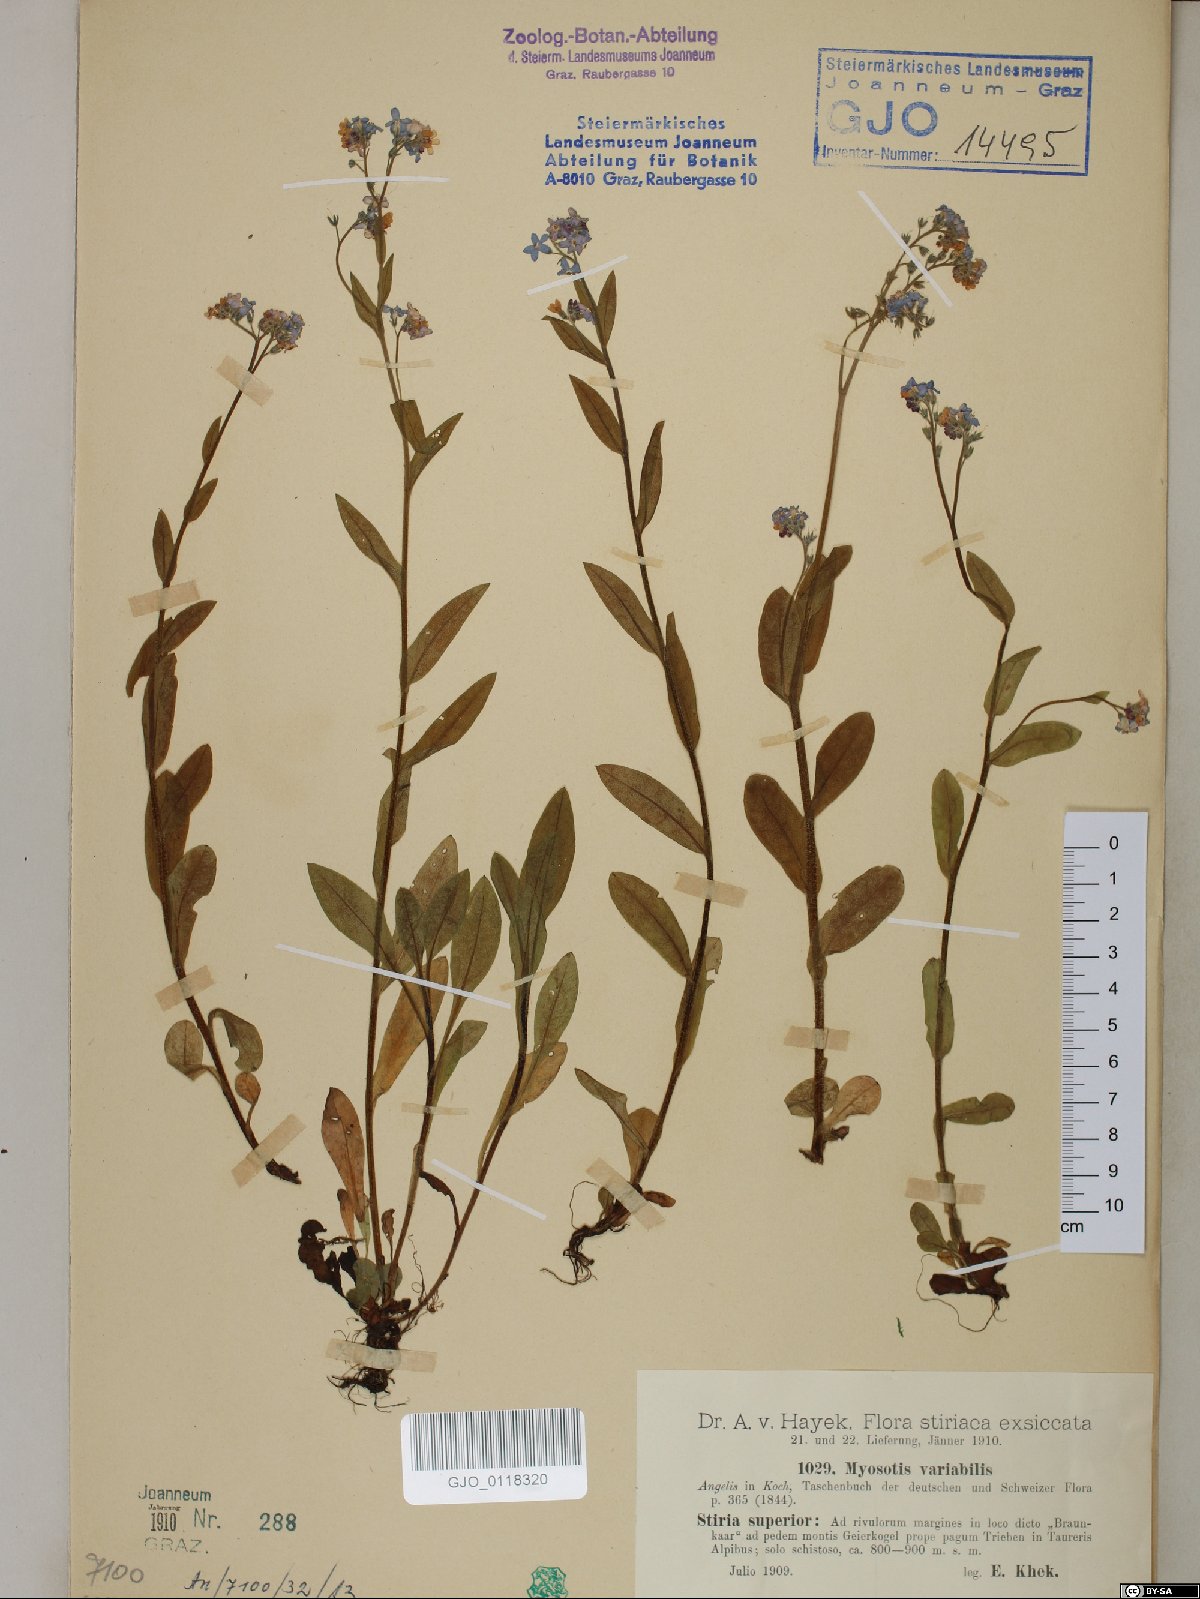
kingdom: Plantae
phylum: Tracheophyta
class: Magnoliopsida
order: Boraginales
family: Boraginaceae
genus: Myosotis
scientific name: Myosotis decumbens
